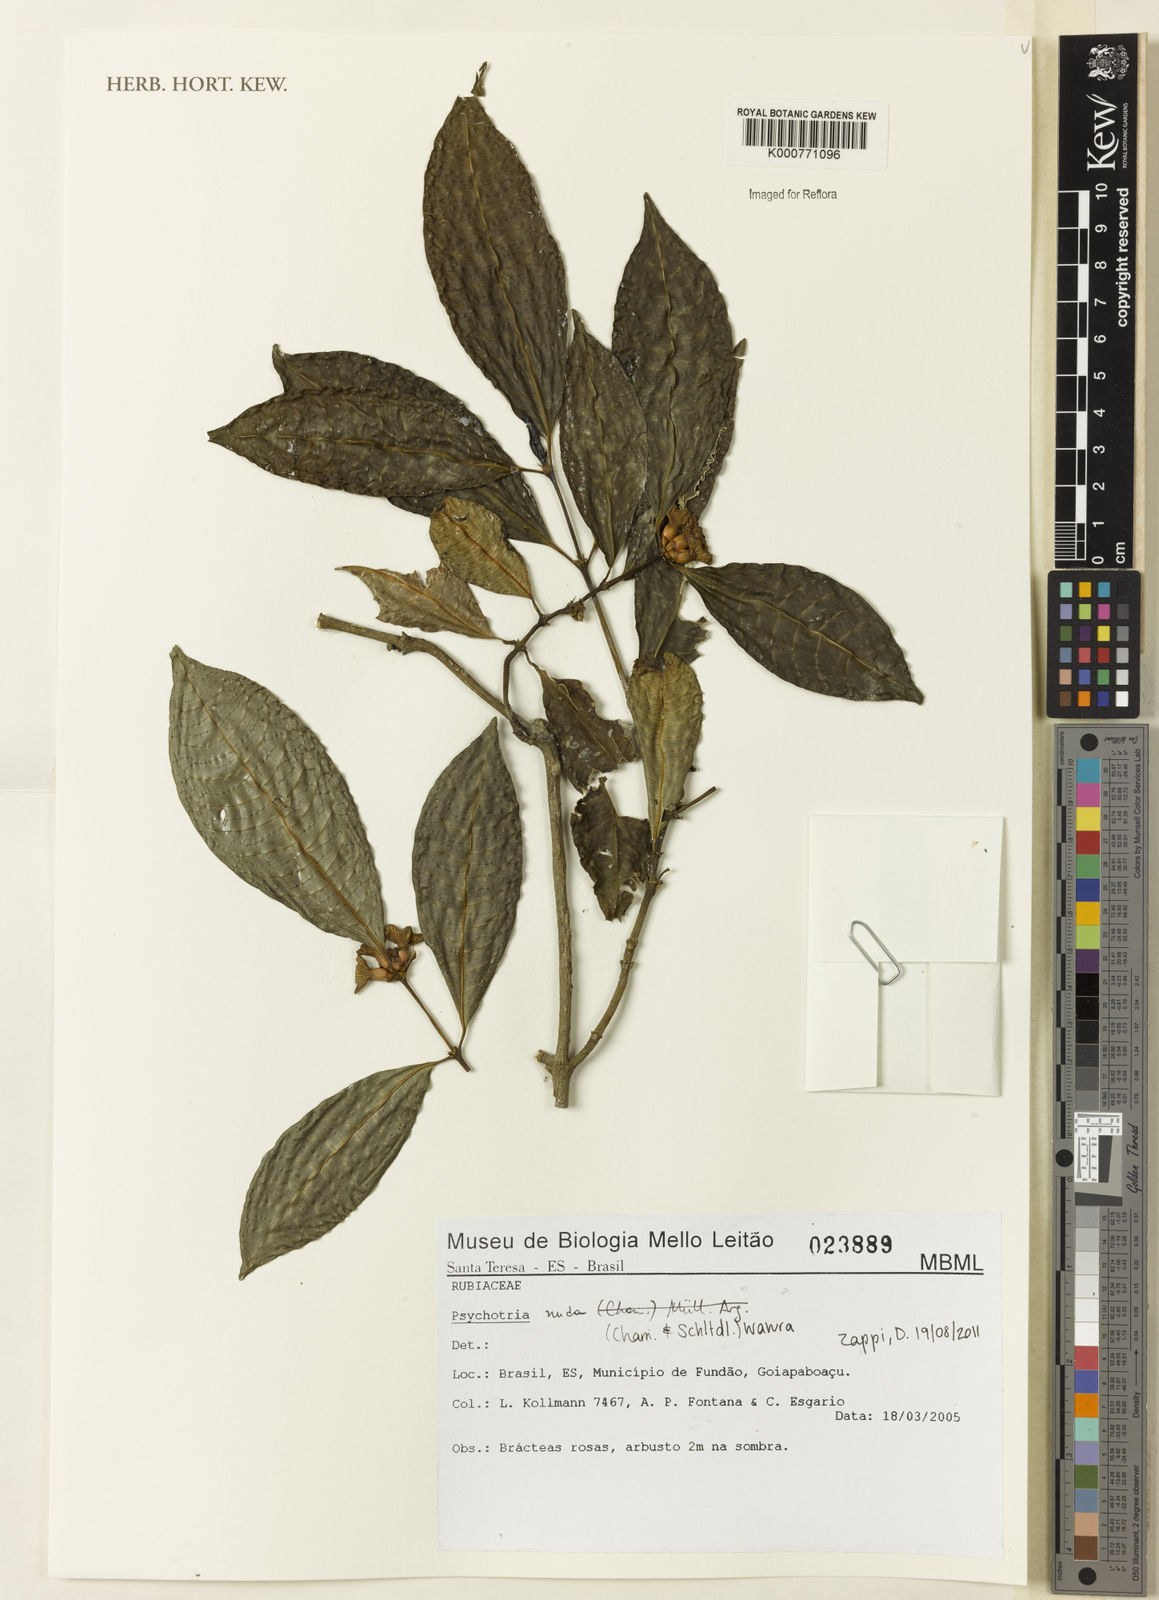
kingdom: Plantae
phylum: Tracheophyta
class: Magnoliopsida
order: Gentianales
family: Rubiaceae
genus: Psychotria
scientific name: Psychotria nuda
